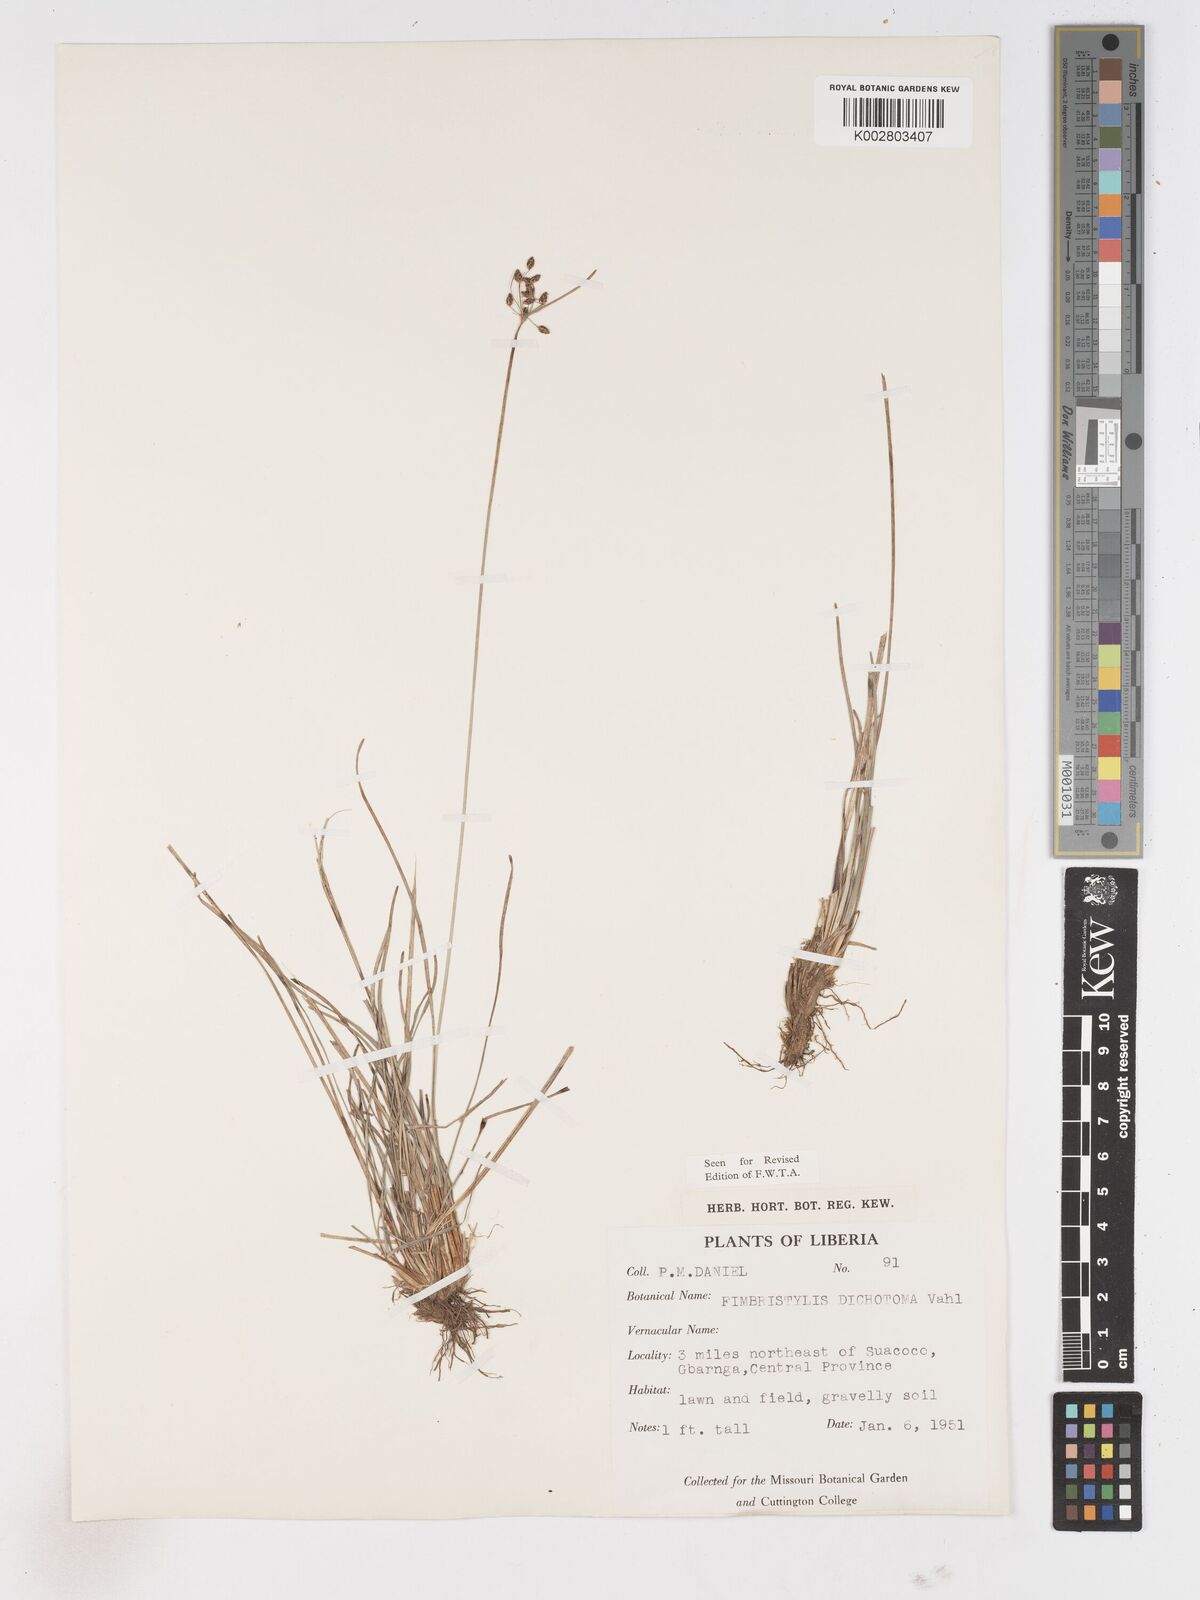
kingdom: Plantae
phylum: Tracheophyta
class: Liliopsida
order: Poales
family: Cyperaceae
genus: Fimbristylis
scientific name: Fimbristylis dichotoma
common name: Forked fimbry
